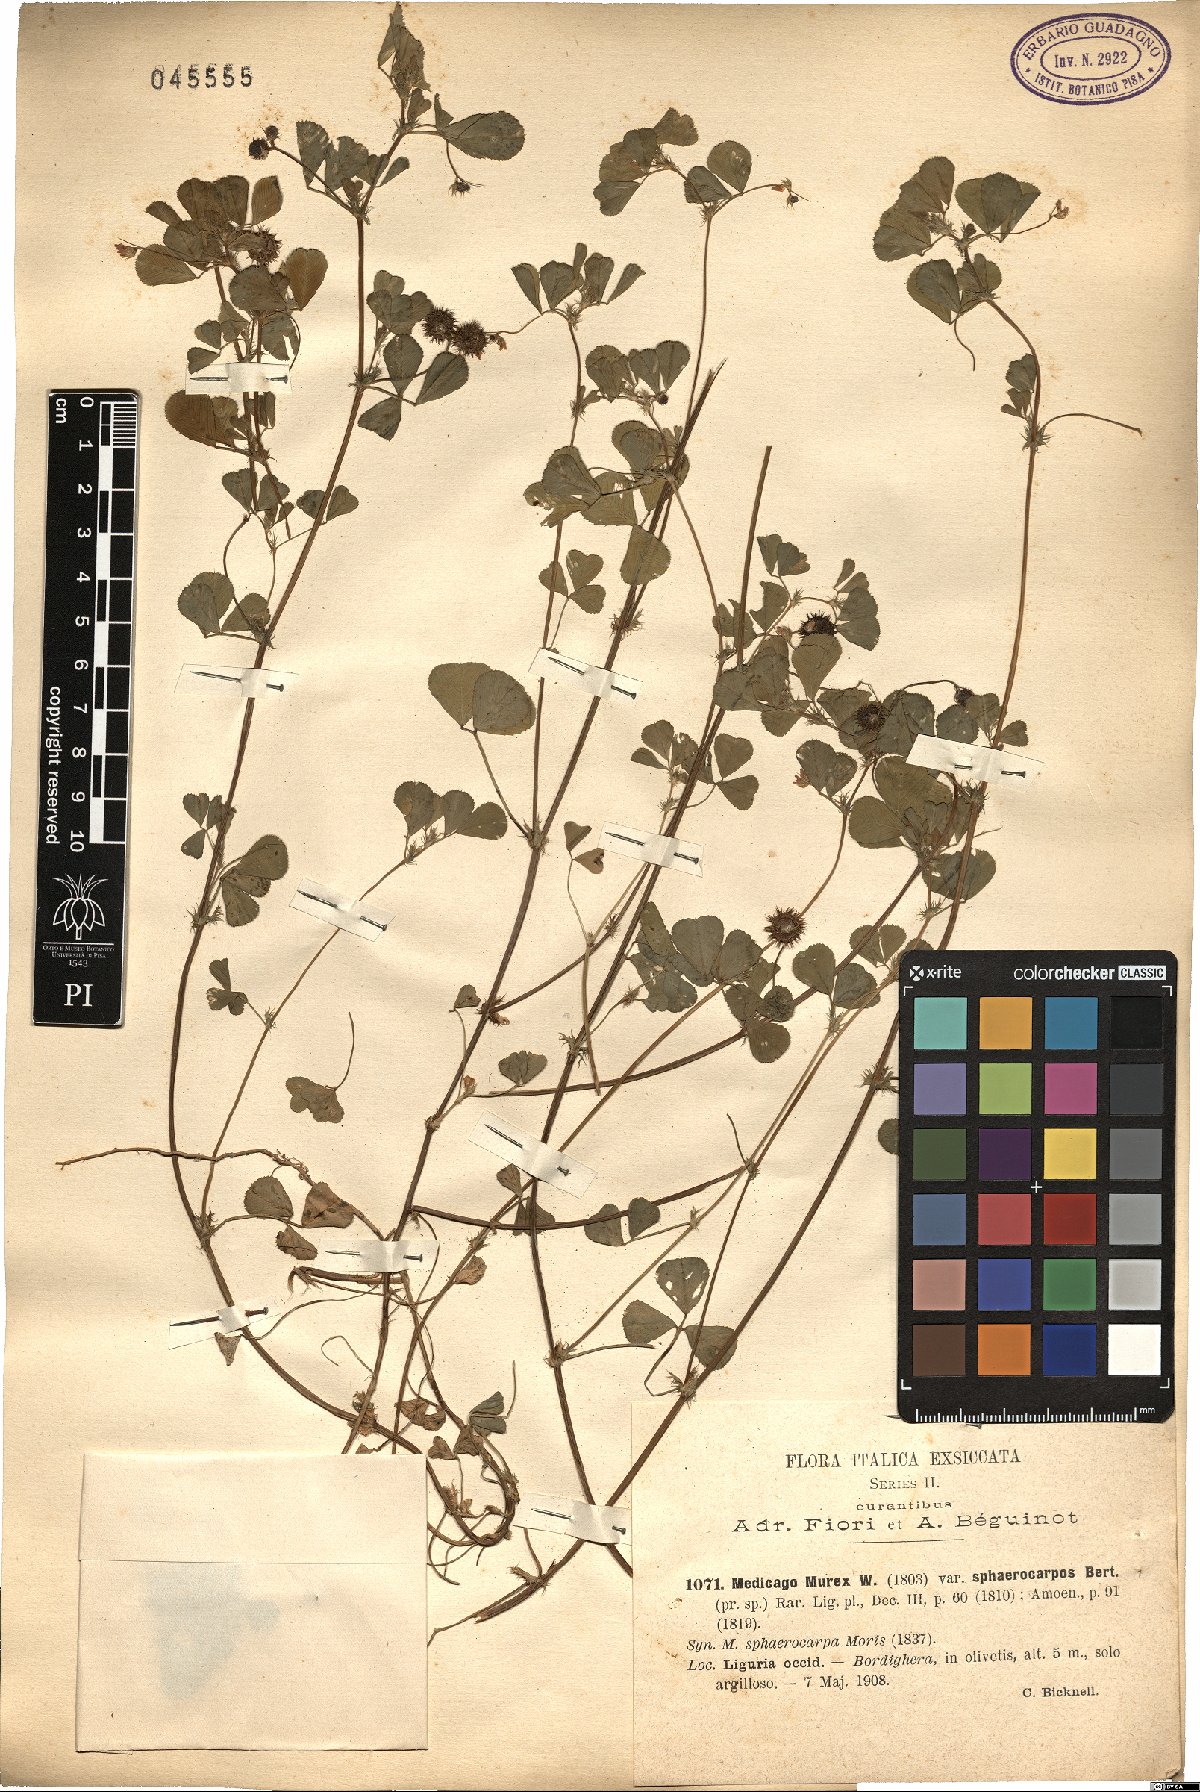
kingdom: Plantae
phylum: Tracheophyta
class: Magnoliopsida
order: Fabales
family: Fabaceae
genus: Medicago
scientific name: Medicago sphaerocarpos
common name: Sphere medic
